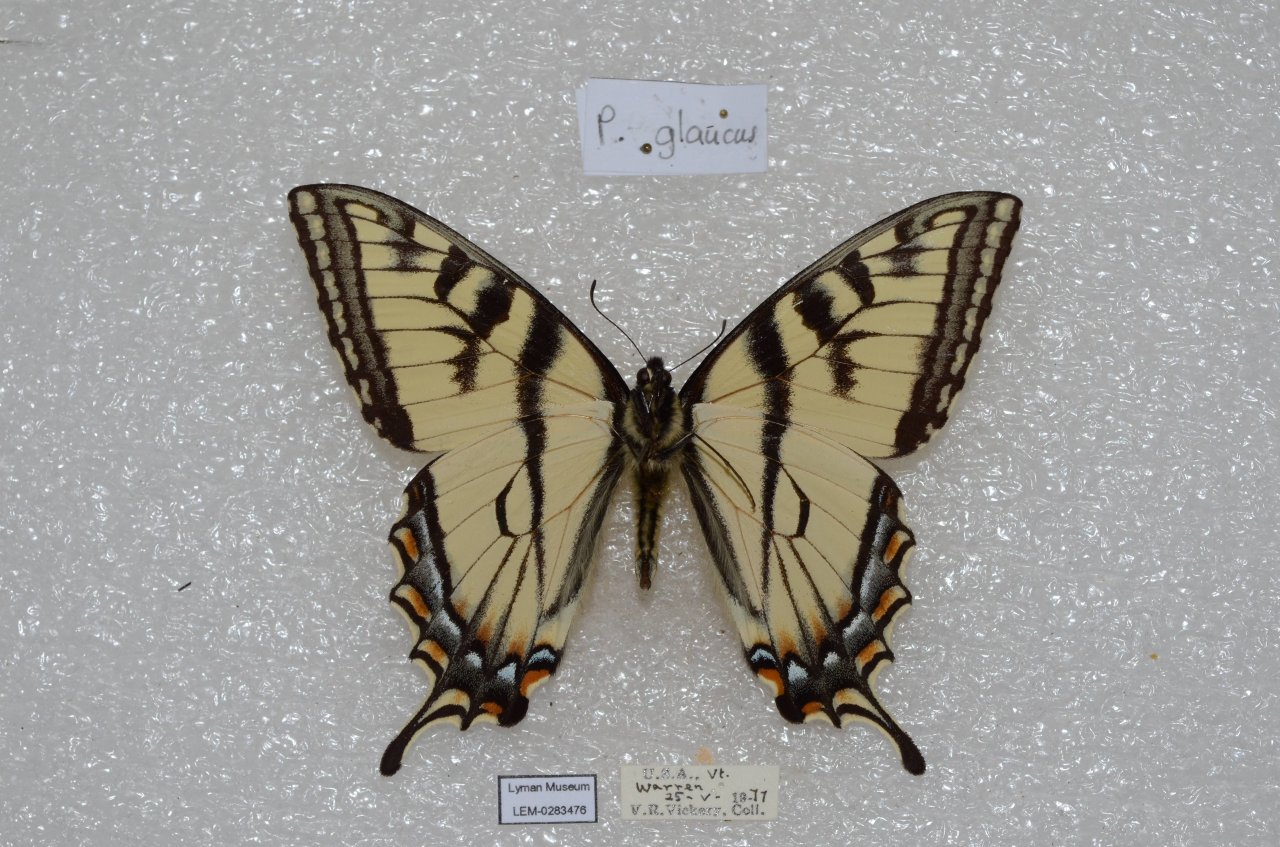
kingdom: Animalia
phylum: Arthropoda
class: Insecta
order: Lepidoptera
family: Papilionidae
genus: Pterourus
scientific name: Pterourus canadensis
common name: Canadian Tiger Swallowtail
